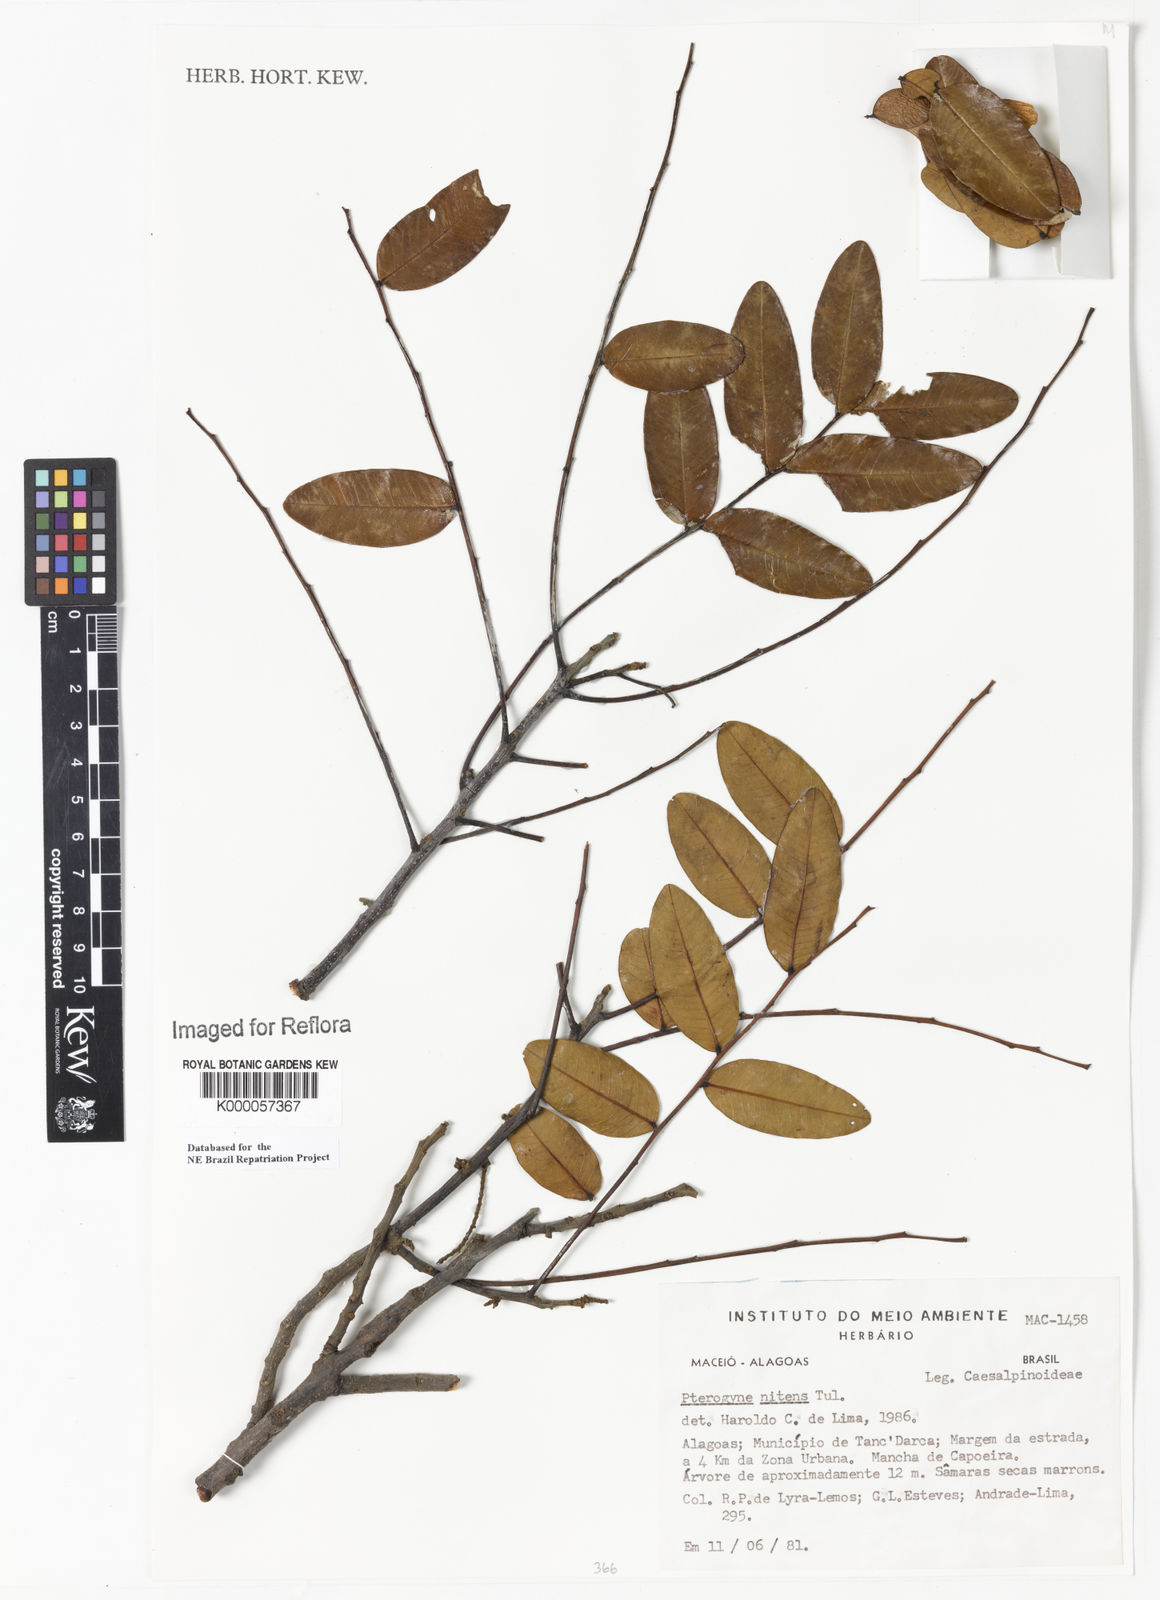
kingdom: Plantae
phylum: Tracheophyta
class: Magnoliopsida
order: Fabales
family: Fabaceae
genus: Pterogyne
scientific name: Pterogyne nitens
